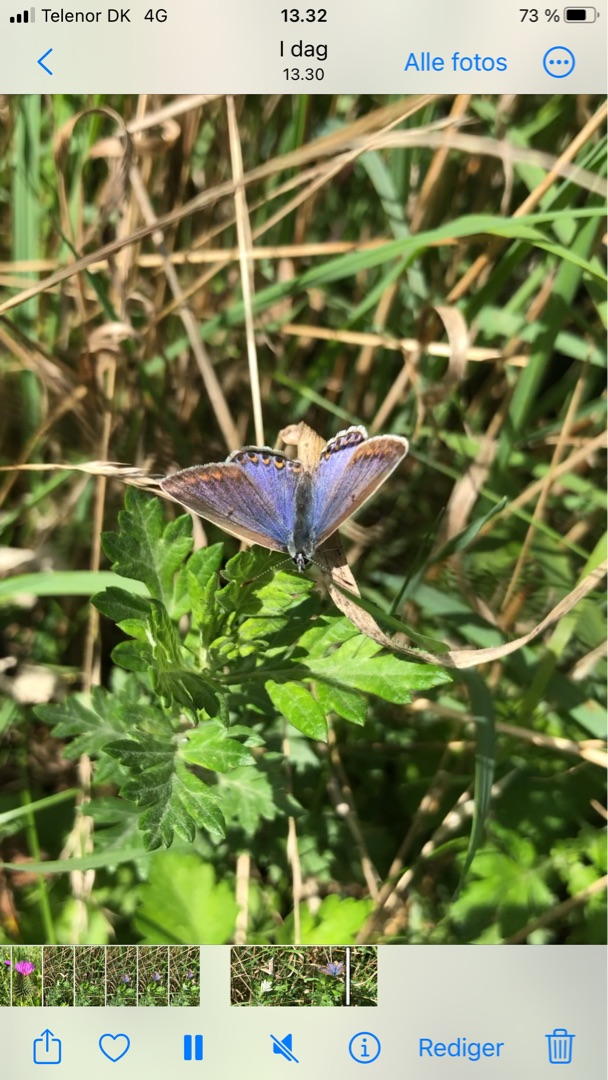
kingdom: Animalia
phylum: Arthropoda
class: Insecta
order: Lepidoptera
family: Lycaenidae
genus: Polyommatus
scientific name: Polyommatus icarus
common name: Almindelig blåfugl
